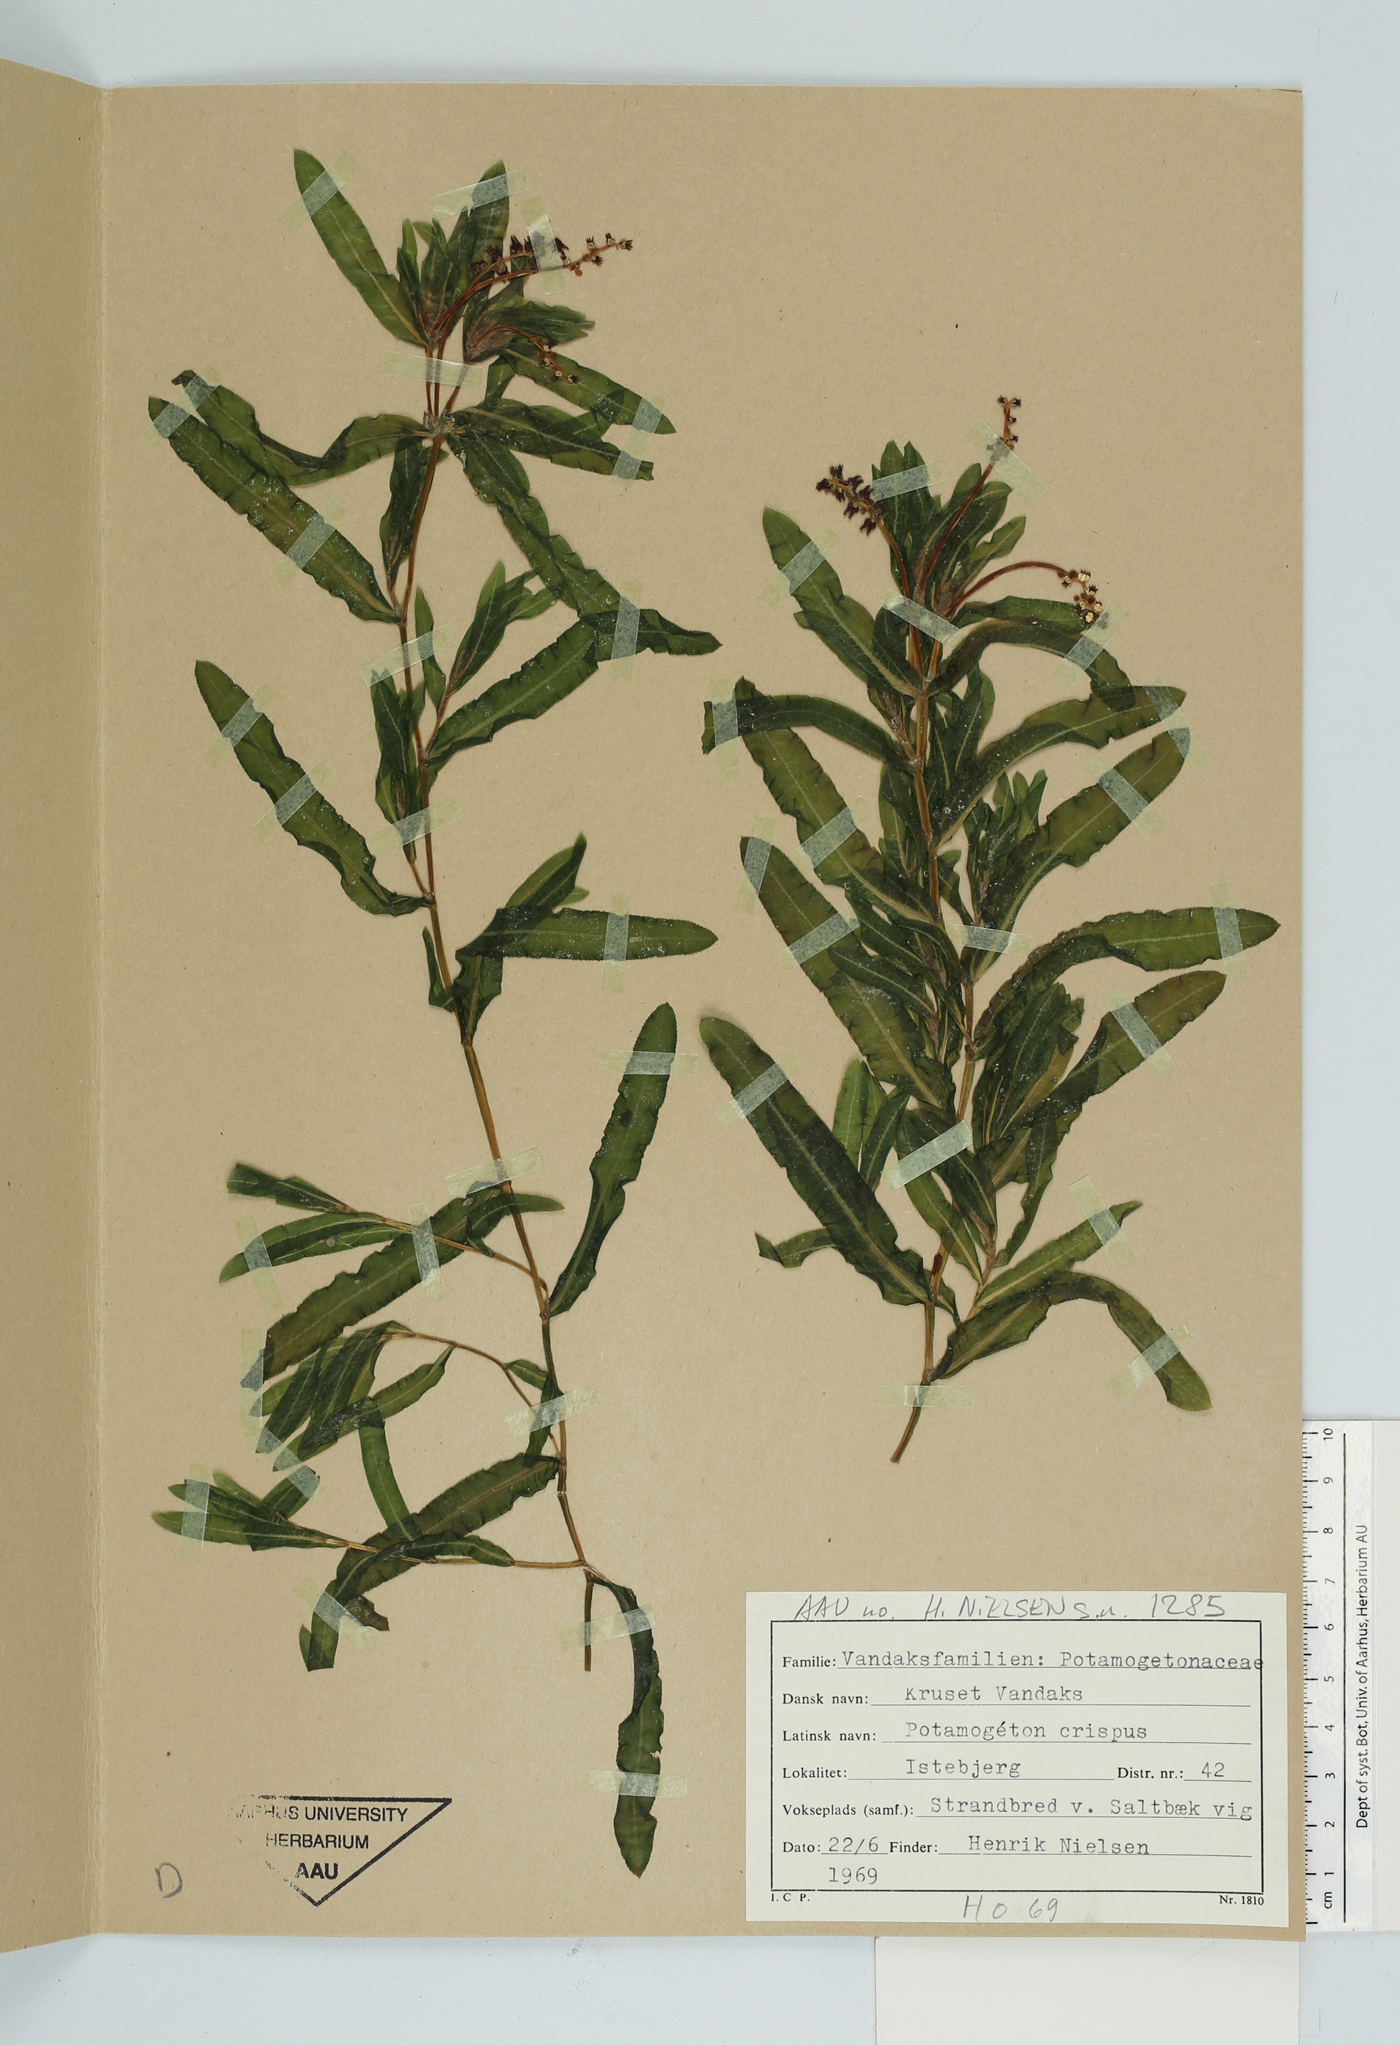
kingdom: Plantae
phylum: Tracheophyta
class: Liliopsida
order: Alismatales
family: Potamogetonaceae
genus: Potamogeton
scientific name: Potamogeton crispus
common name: Curled pondweed
